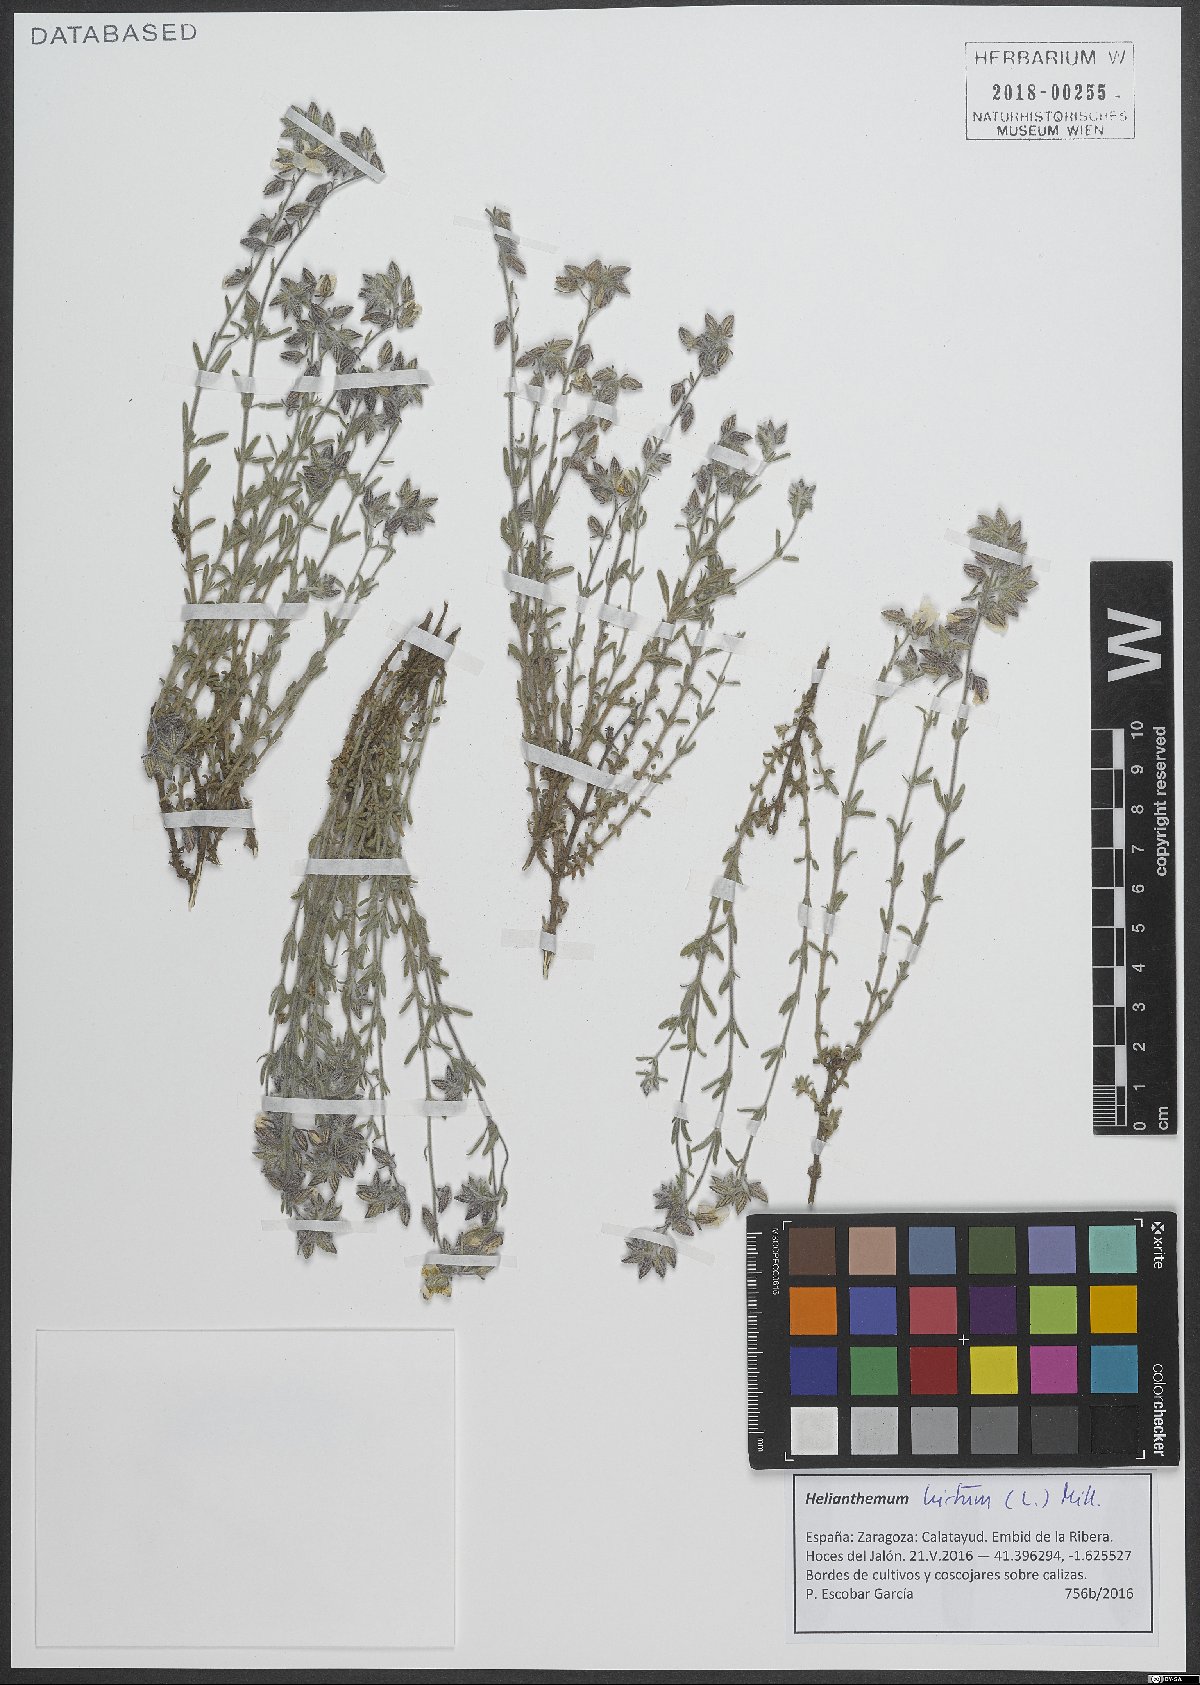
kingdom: Plantae
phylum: Tracheophyta
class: Magnoliopsida
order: Malvales
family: Cistaceae
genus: Helianthemum
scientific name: Helianthemum hirtum
